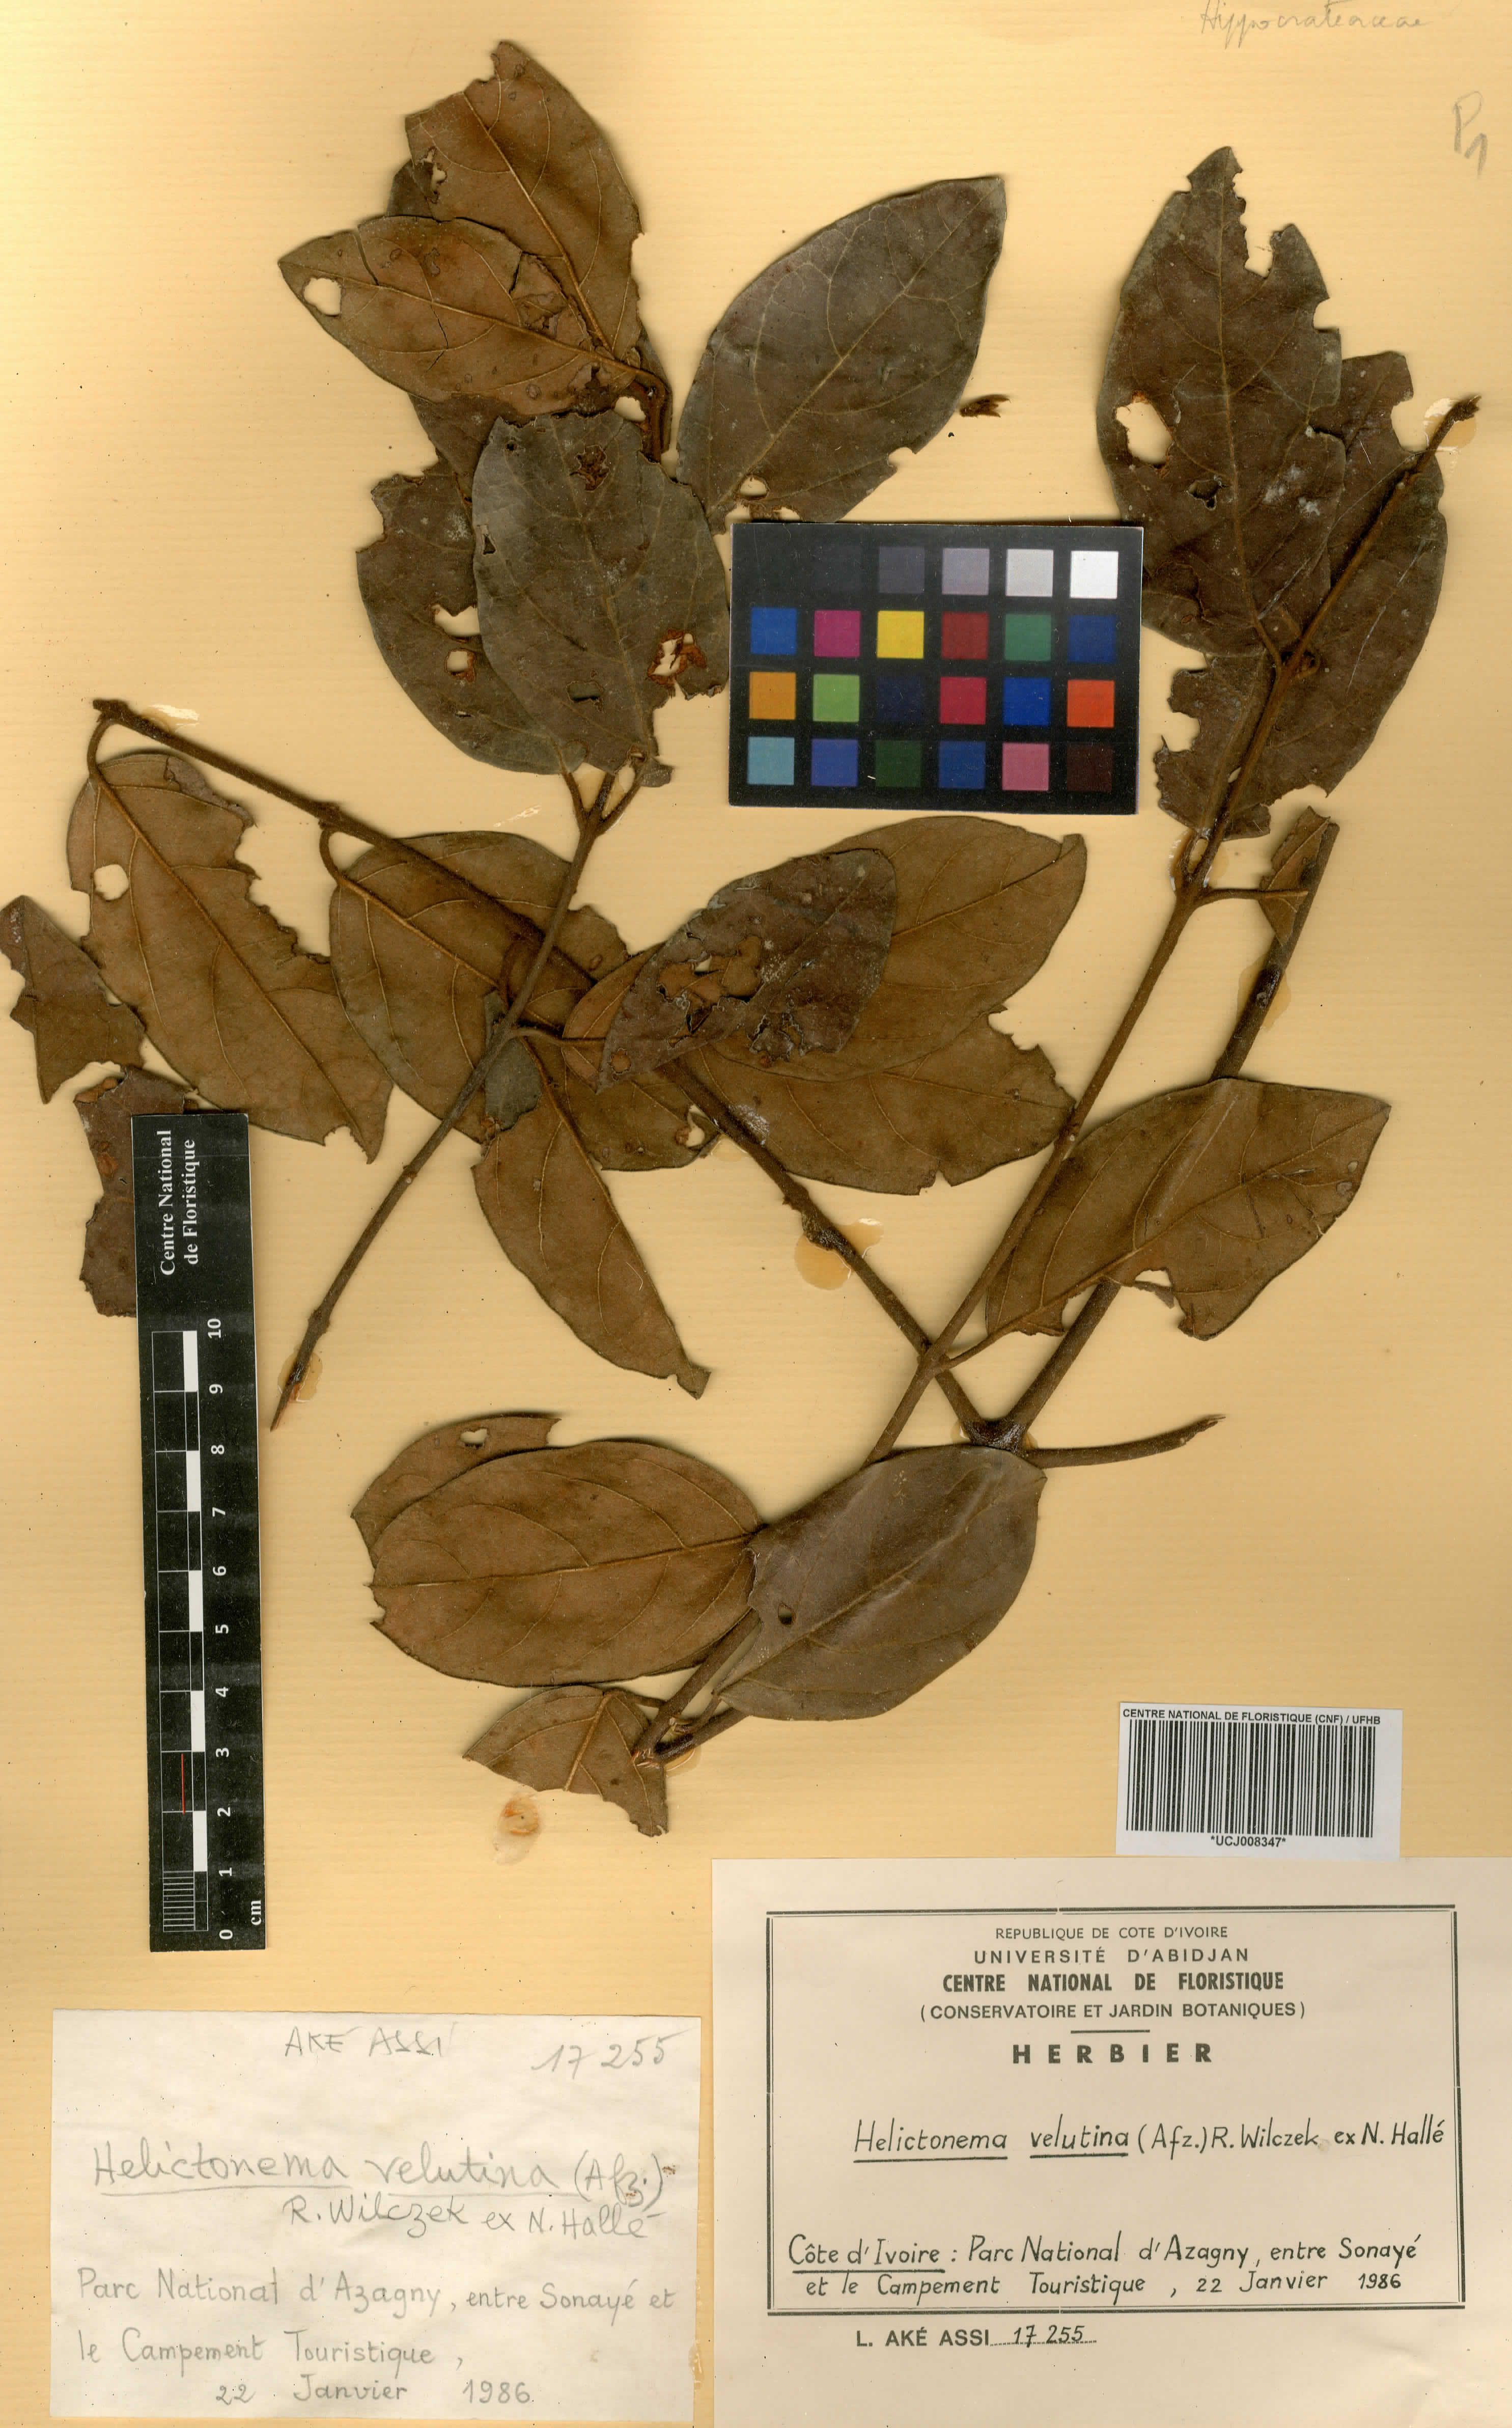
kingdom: Plantae
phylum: Tracheophyta
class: Magnoliopsida
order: Celastrales
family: Celastraceae
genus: Helictonema
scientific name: Helictonema velutinum
